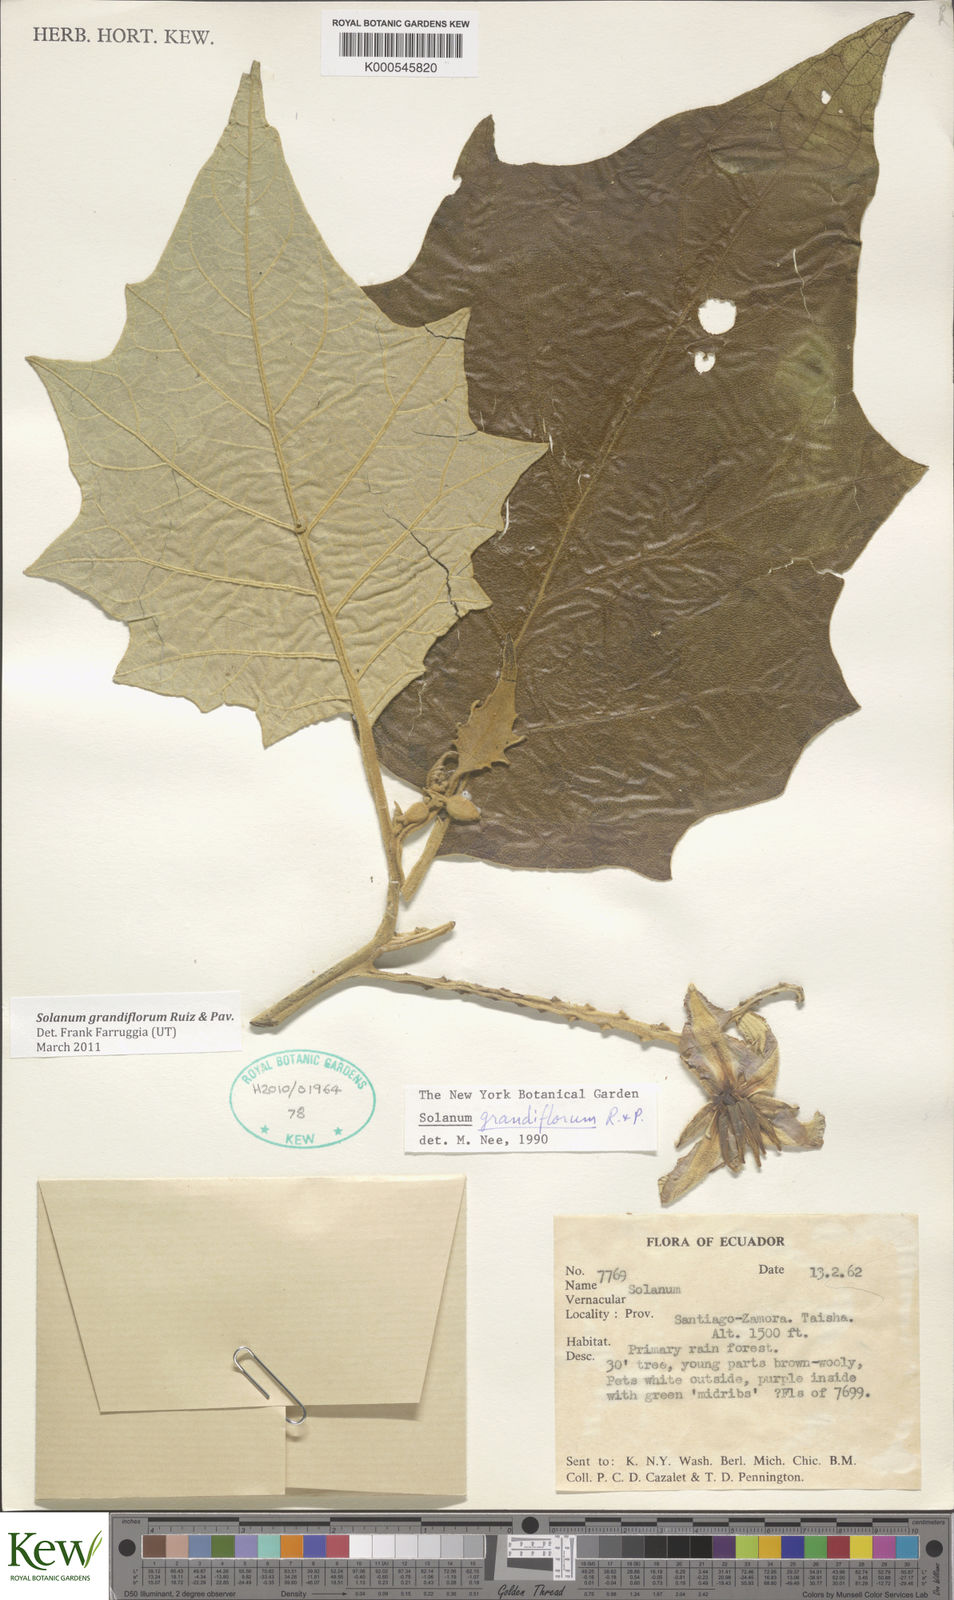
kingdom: Plantae
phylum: Tracheophyta
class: Magnoliopsida
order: Solanales
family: Solanaceae
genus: Solanum
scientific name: Solanum grandiflorum
